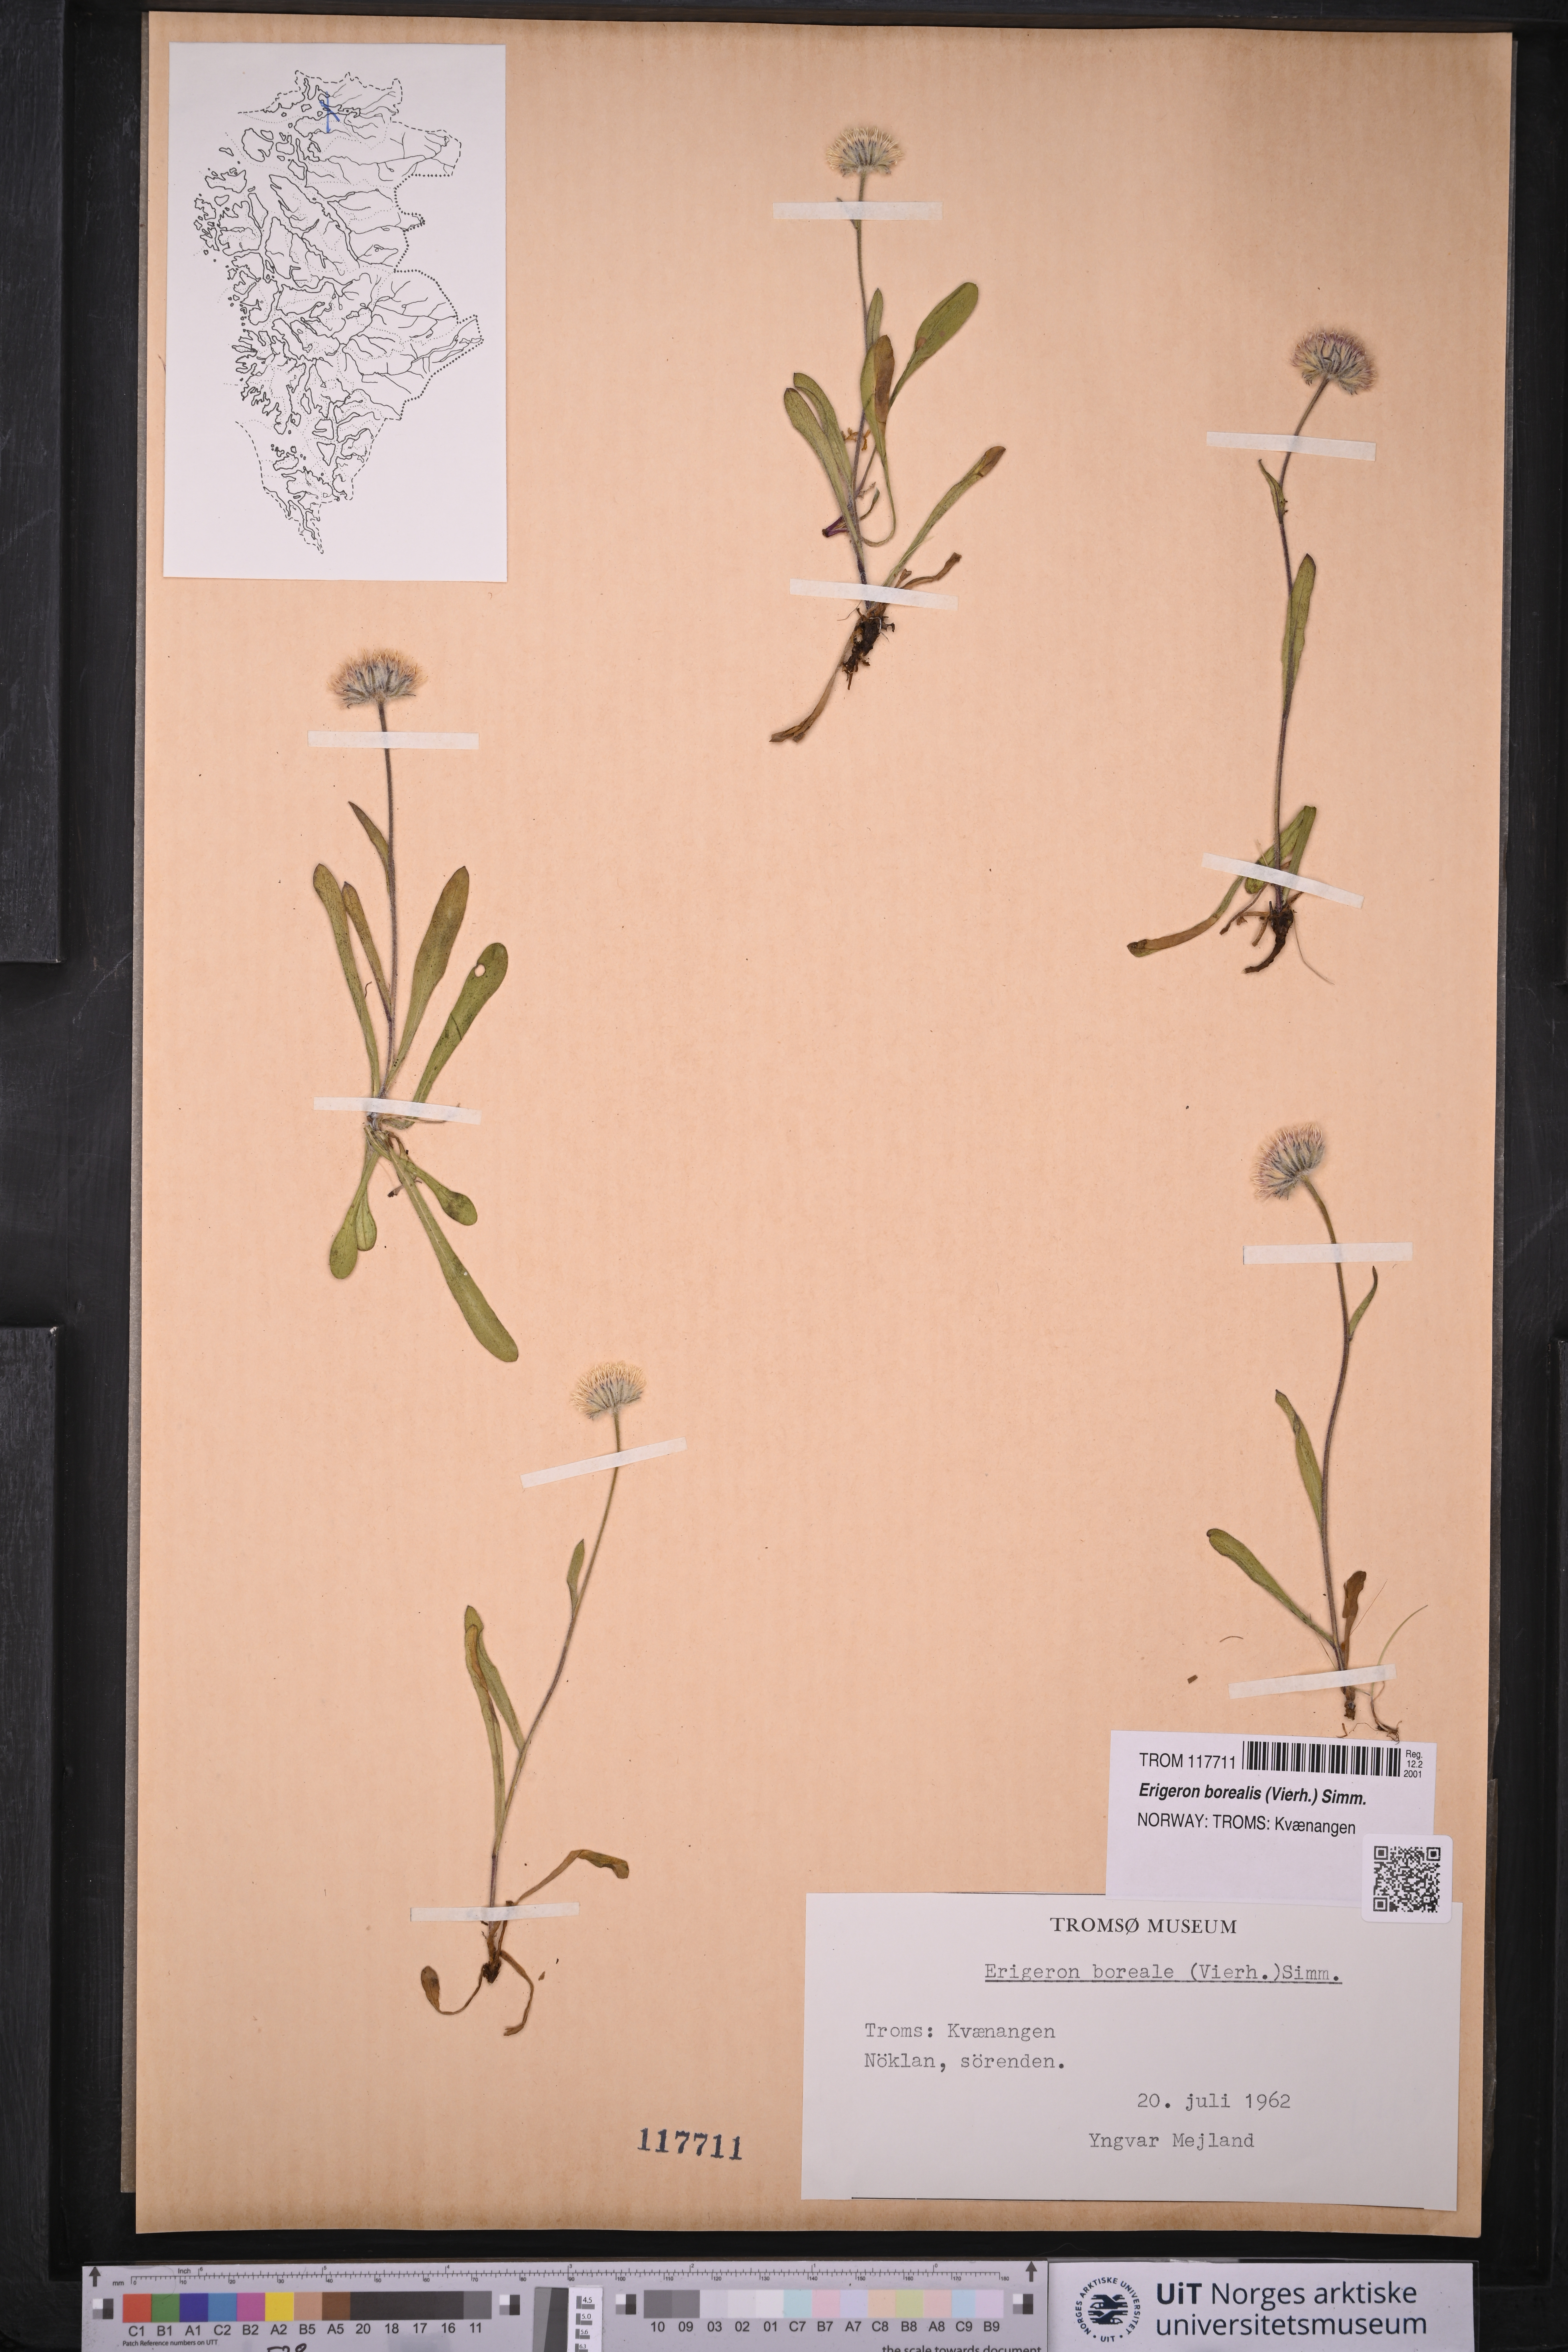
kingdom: Plantae
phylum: Tracheophyta
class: Magnoliopsida
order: Asterales
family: Asteraceae
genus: Erigeron
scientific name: Erigeron borealis
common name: Alpine fleabane
